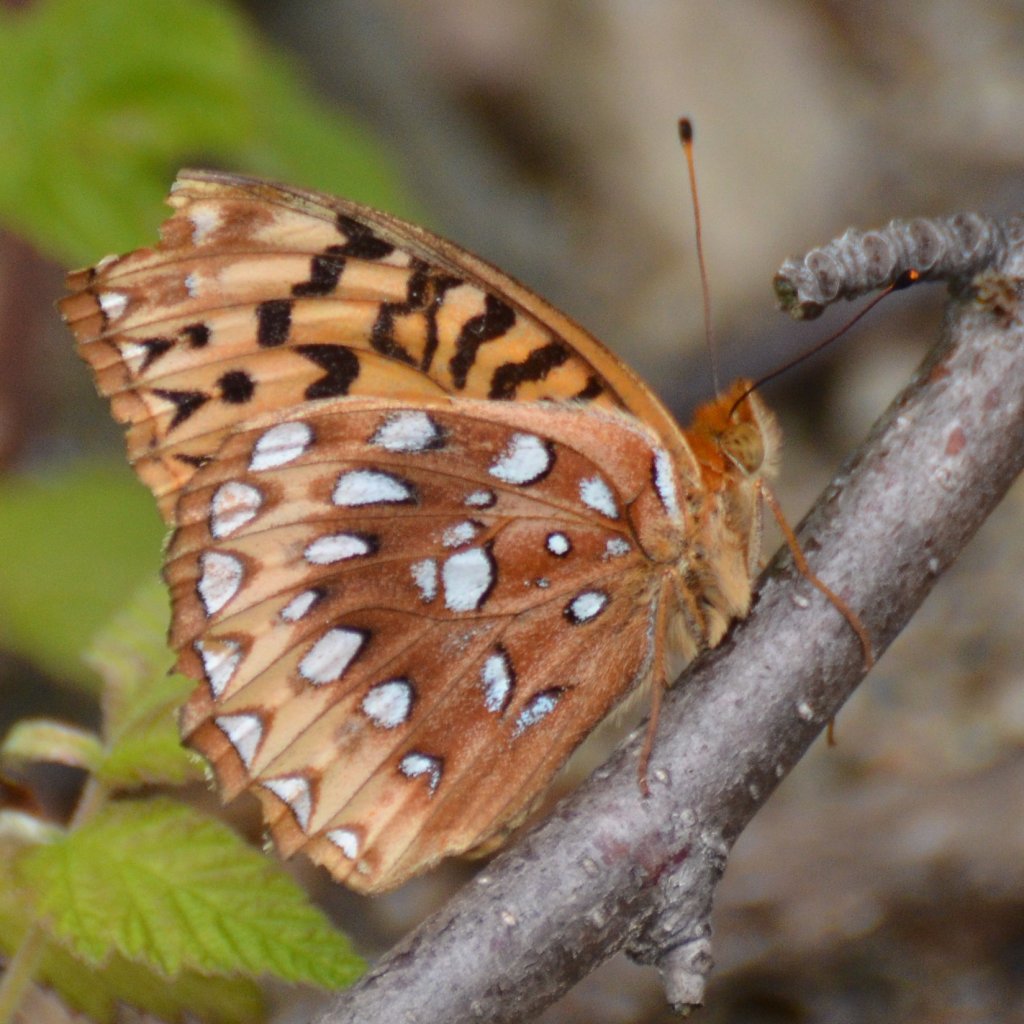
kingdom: Animalia
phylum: Arthropoda
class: Insecta
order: Lepidoptera
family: Nymphalidae
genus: Speyeria
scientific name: Speyeria cybele
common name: Great Spangled Fritillary
